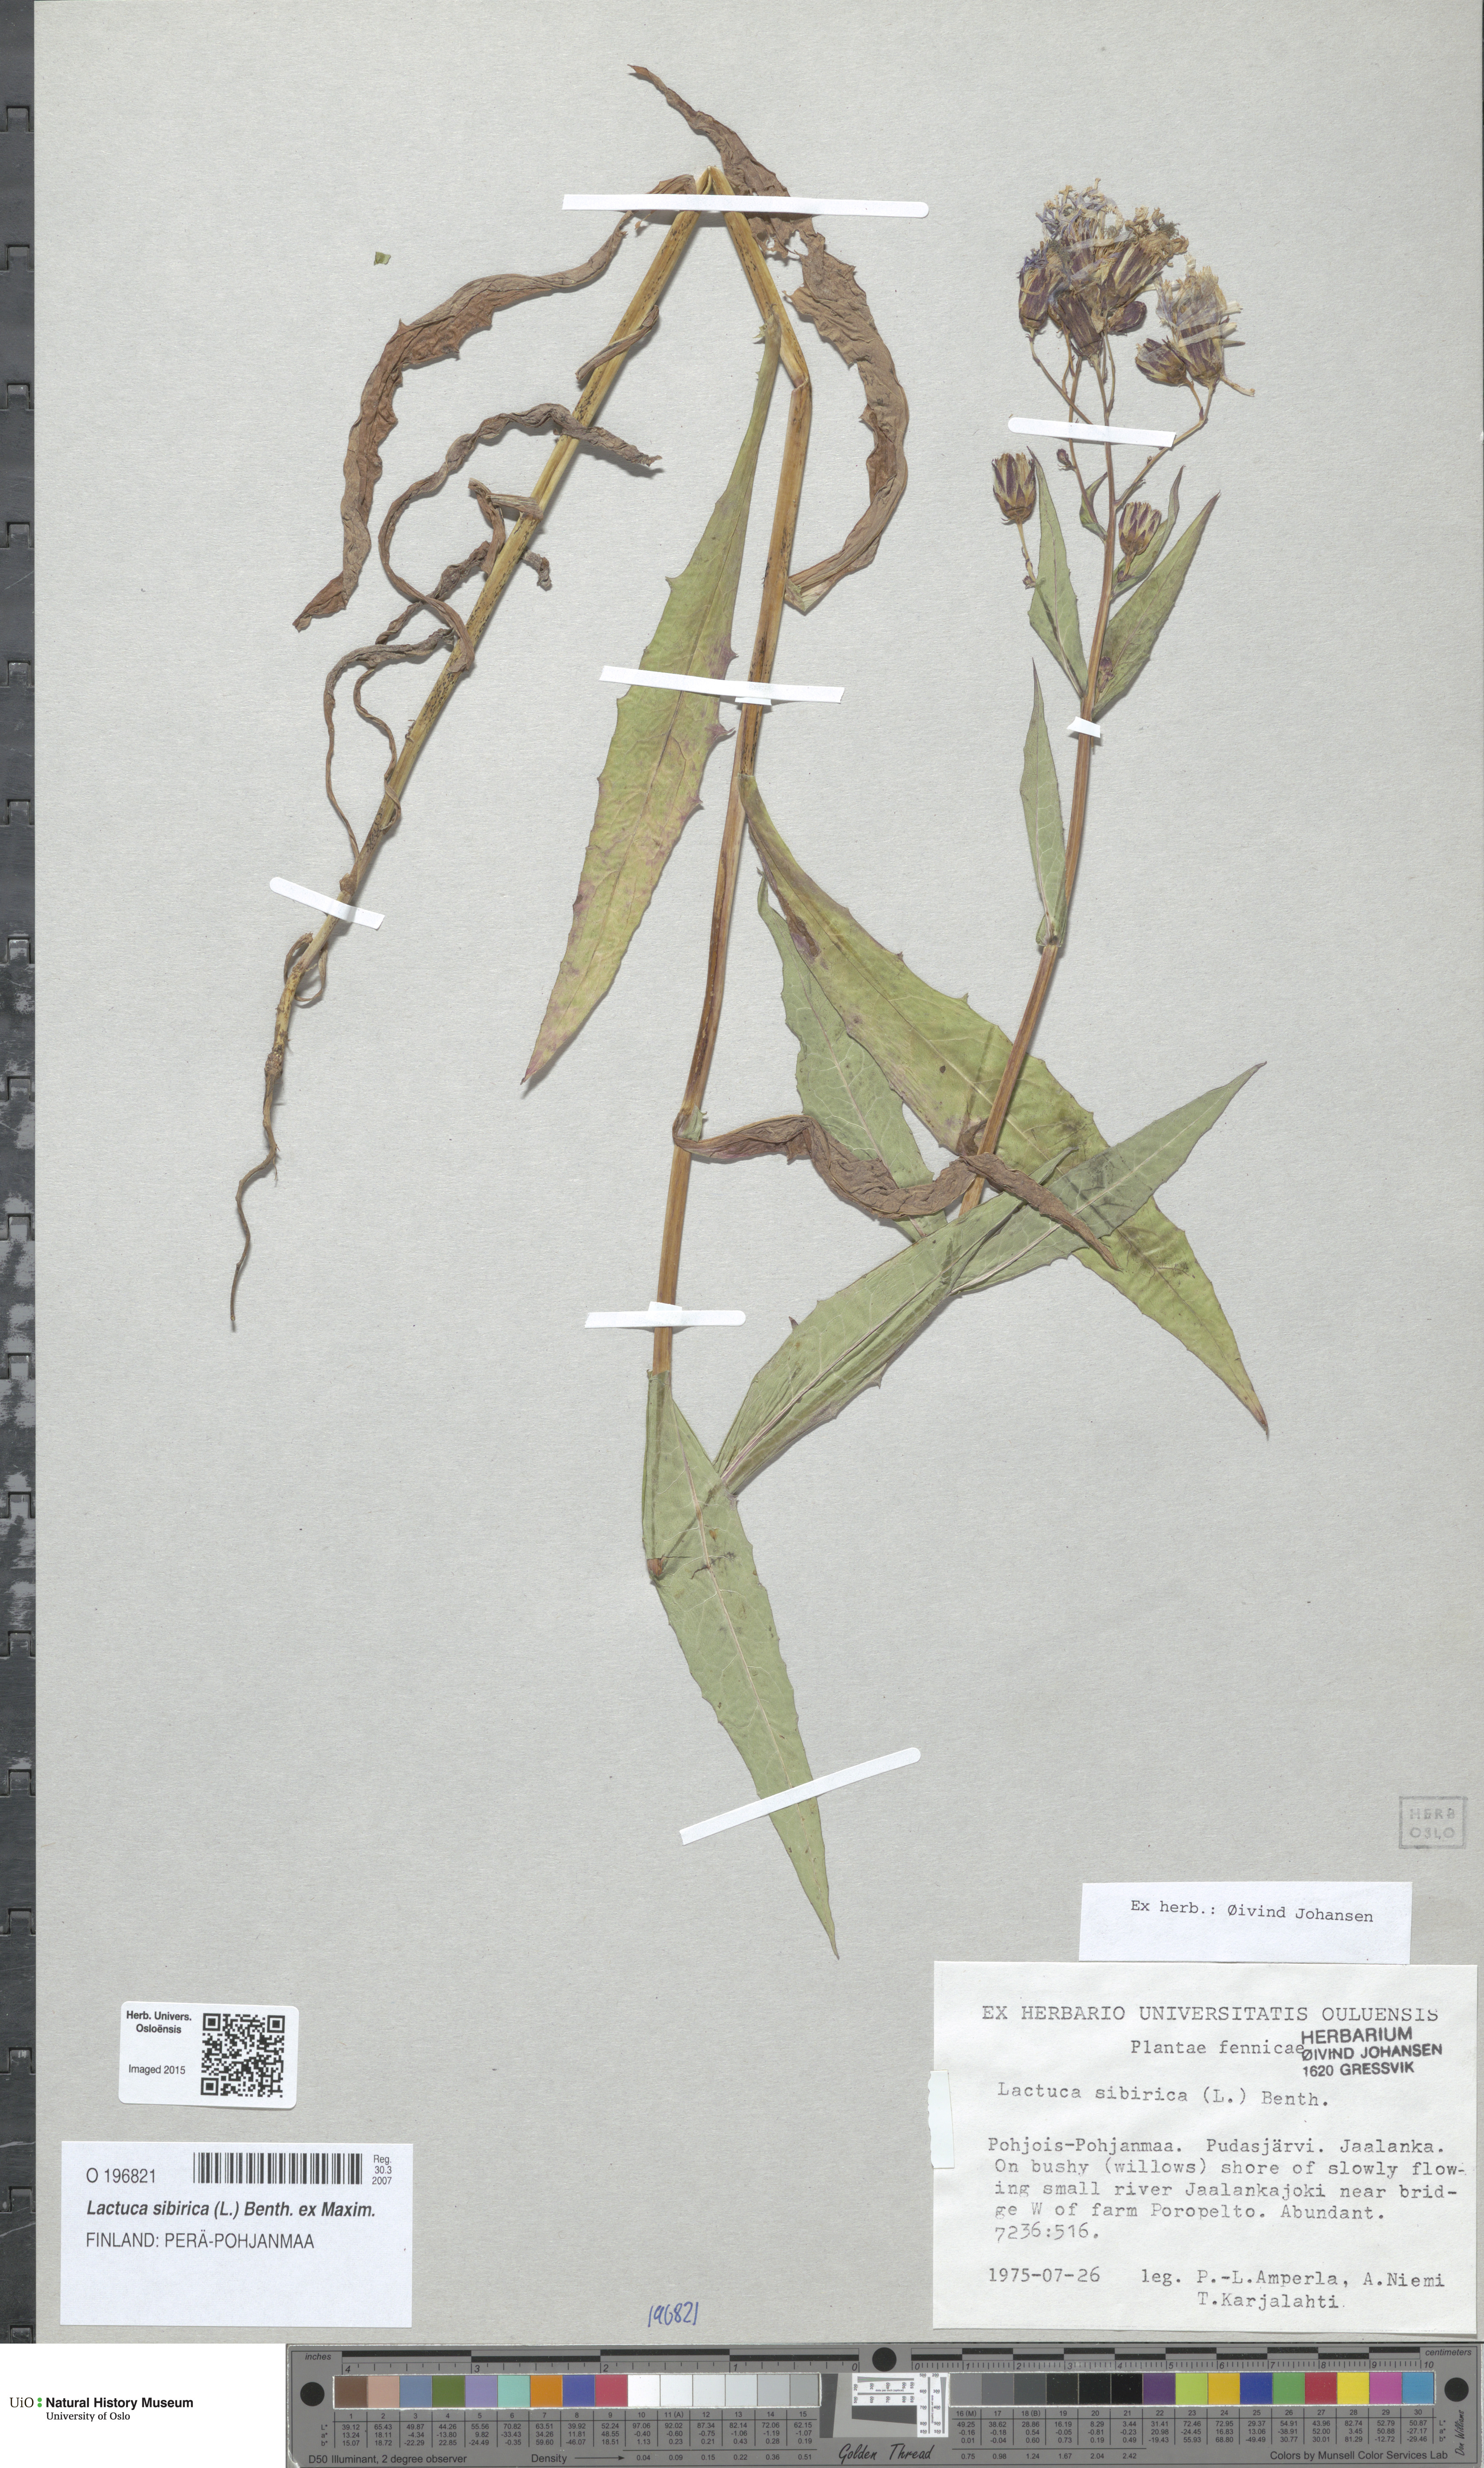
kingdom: Plantae
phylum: Tracheophyta
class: Magnoliopsida
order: Asterales
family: Asteraceae
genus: Lactuca
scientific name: Lactuca sibirica
